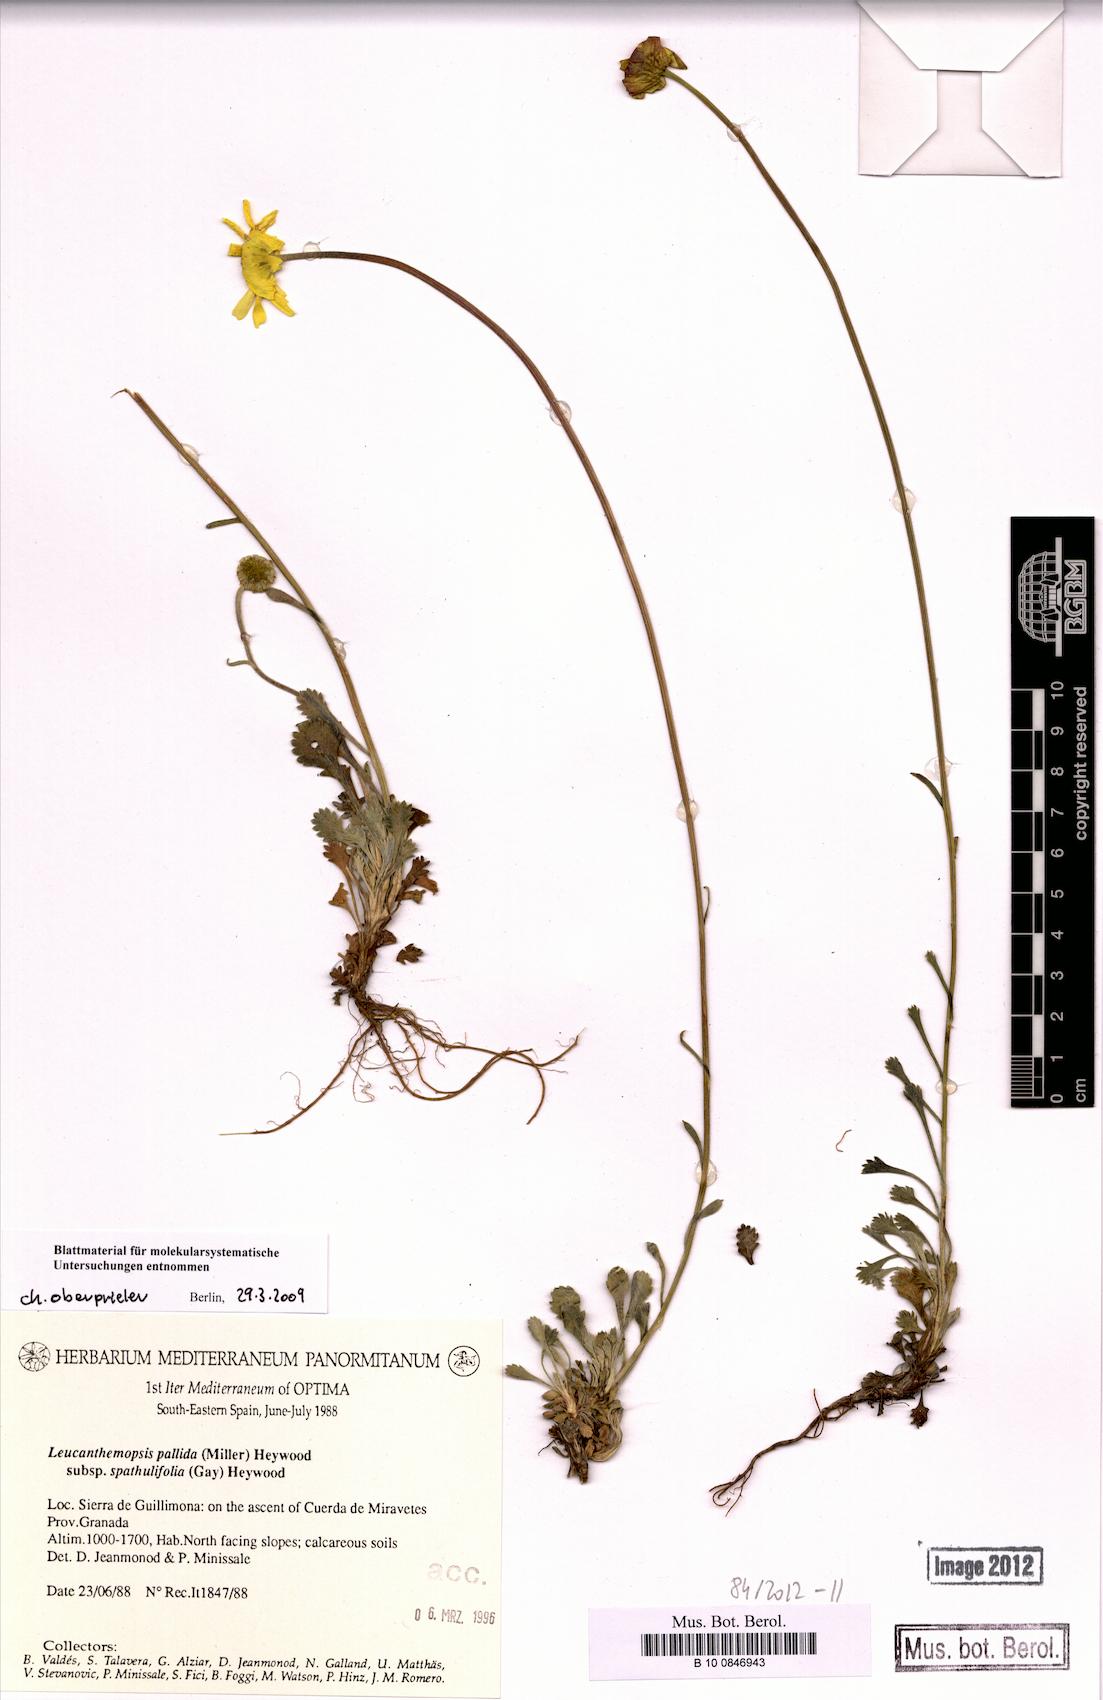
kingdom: Plantae
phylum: Tracheophyta
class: Magnoliopsida
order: Asterales
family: Asteraceae
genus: Leucanthemopsis
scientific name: Leucanthemopsis spathulifolia
